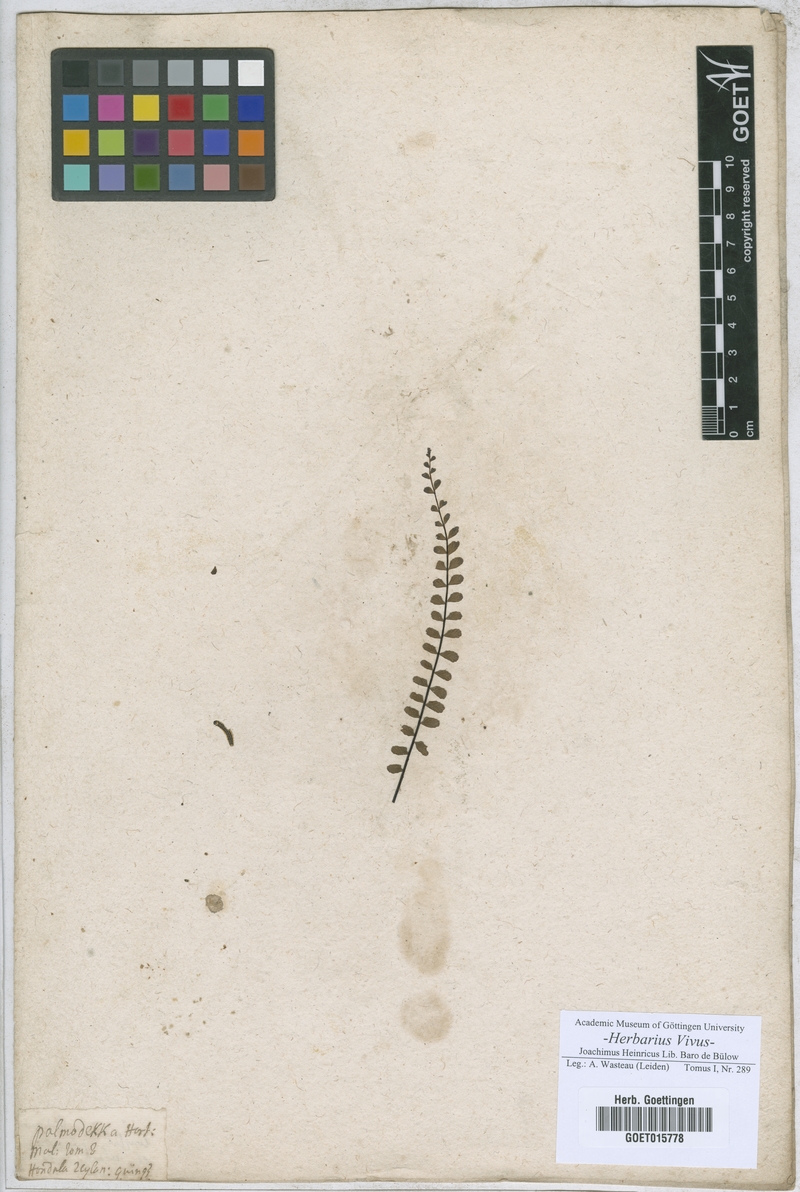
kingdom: Plantae
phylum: Tracheophyta
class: Magnoliopsida
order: Rosales
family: Rosaceae
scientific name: Rosaceae
